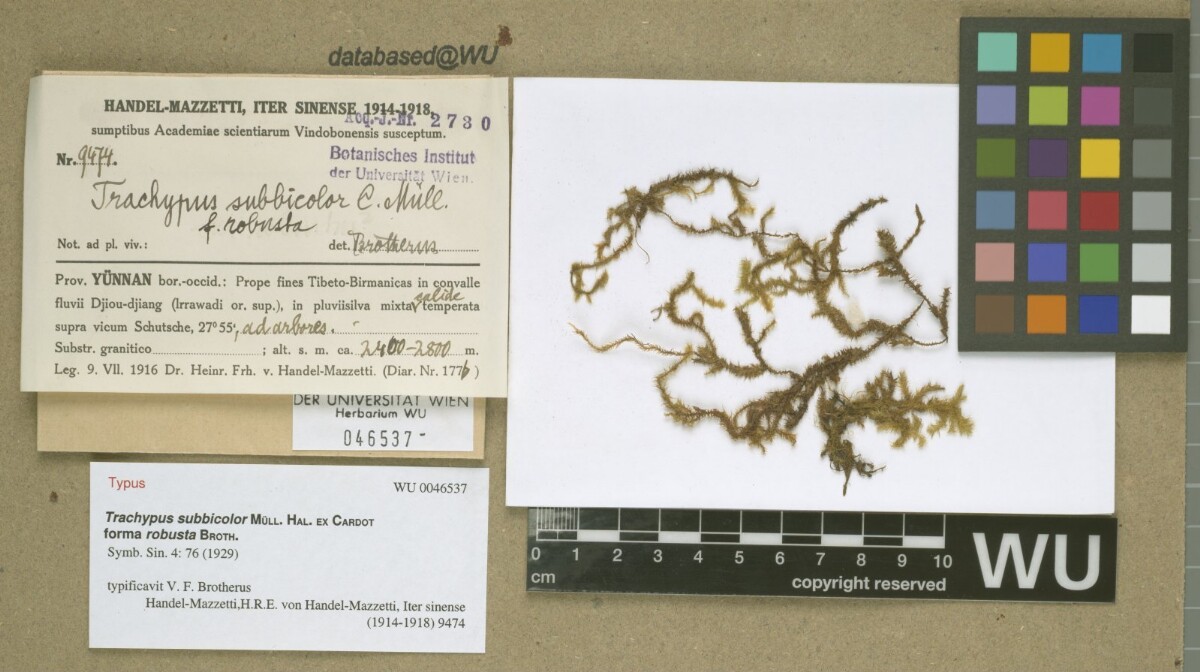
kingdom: Plantae
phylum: Bryophyta
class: Bryopsida
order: Hypnales
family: Meteoriaceae
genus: Trachypus
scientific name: Trachypus bicolor
